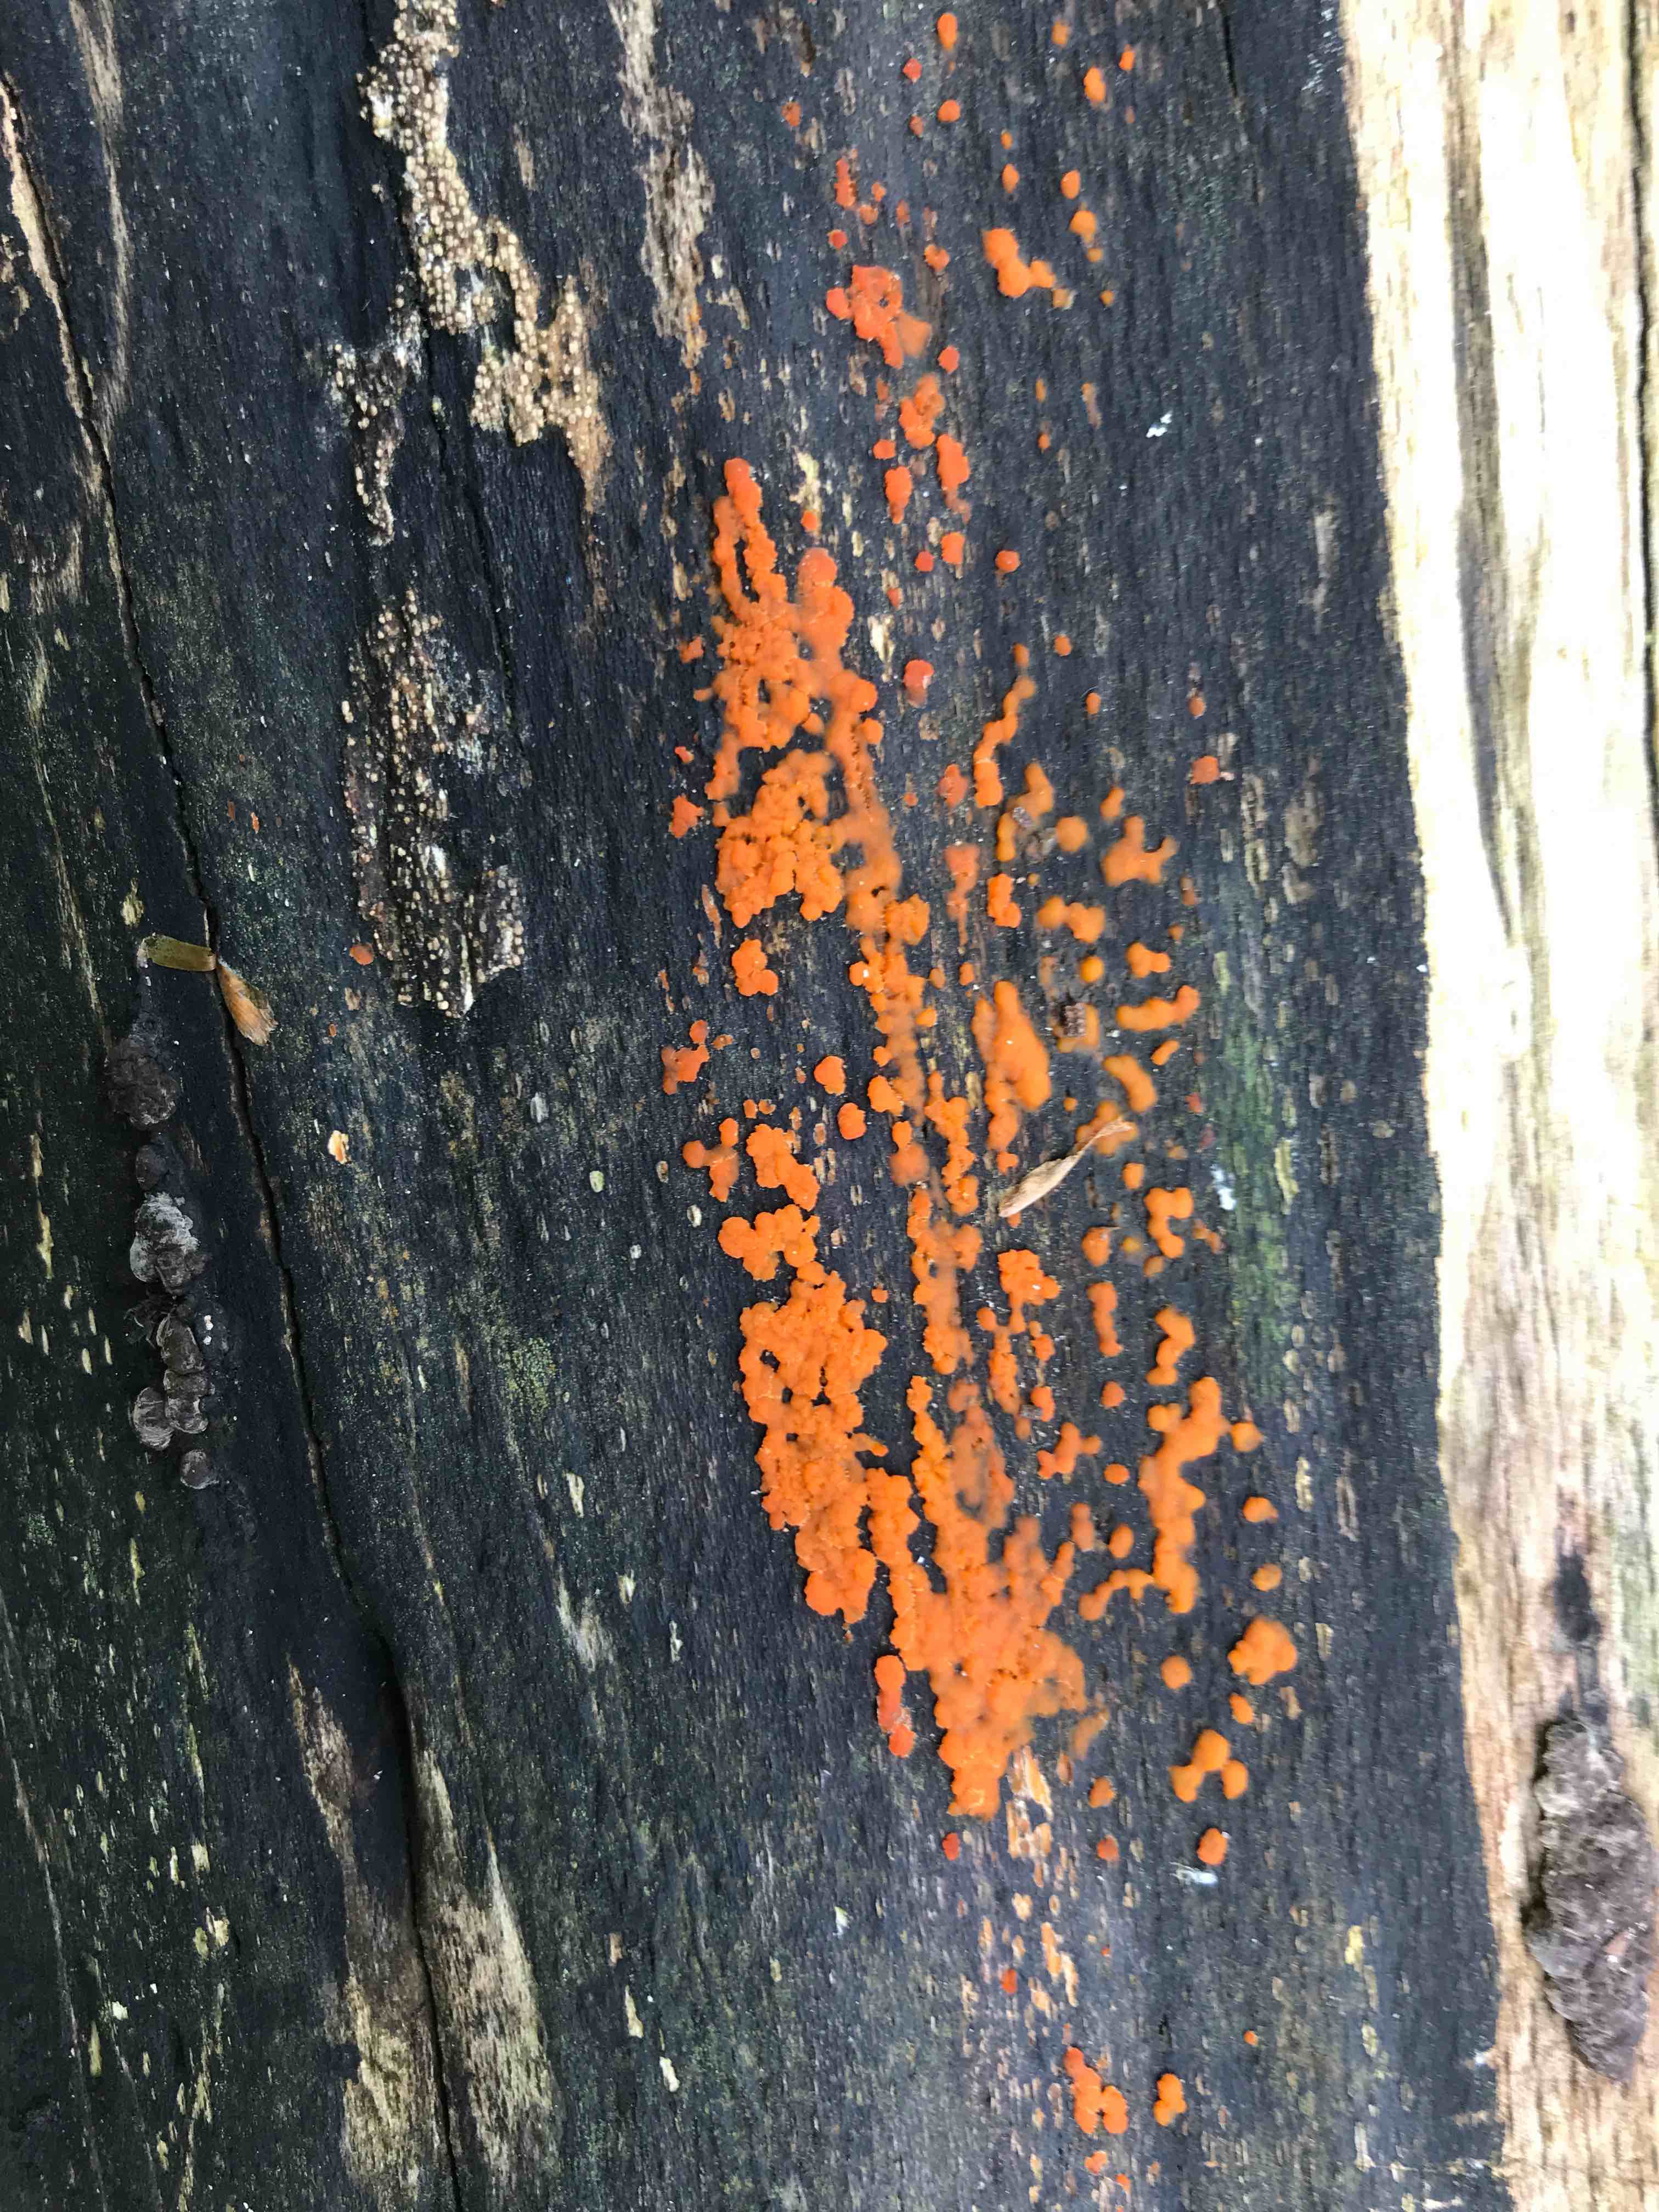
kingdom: Fungi
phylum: Basidiomycota
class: Dacrymycetes
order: Dacrymycetales
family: Dacrymycetaceae
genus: Dacrymyces
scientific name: Dacrymyces stillatus
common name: almindelig tåresvamp
